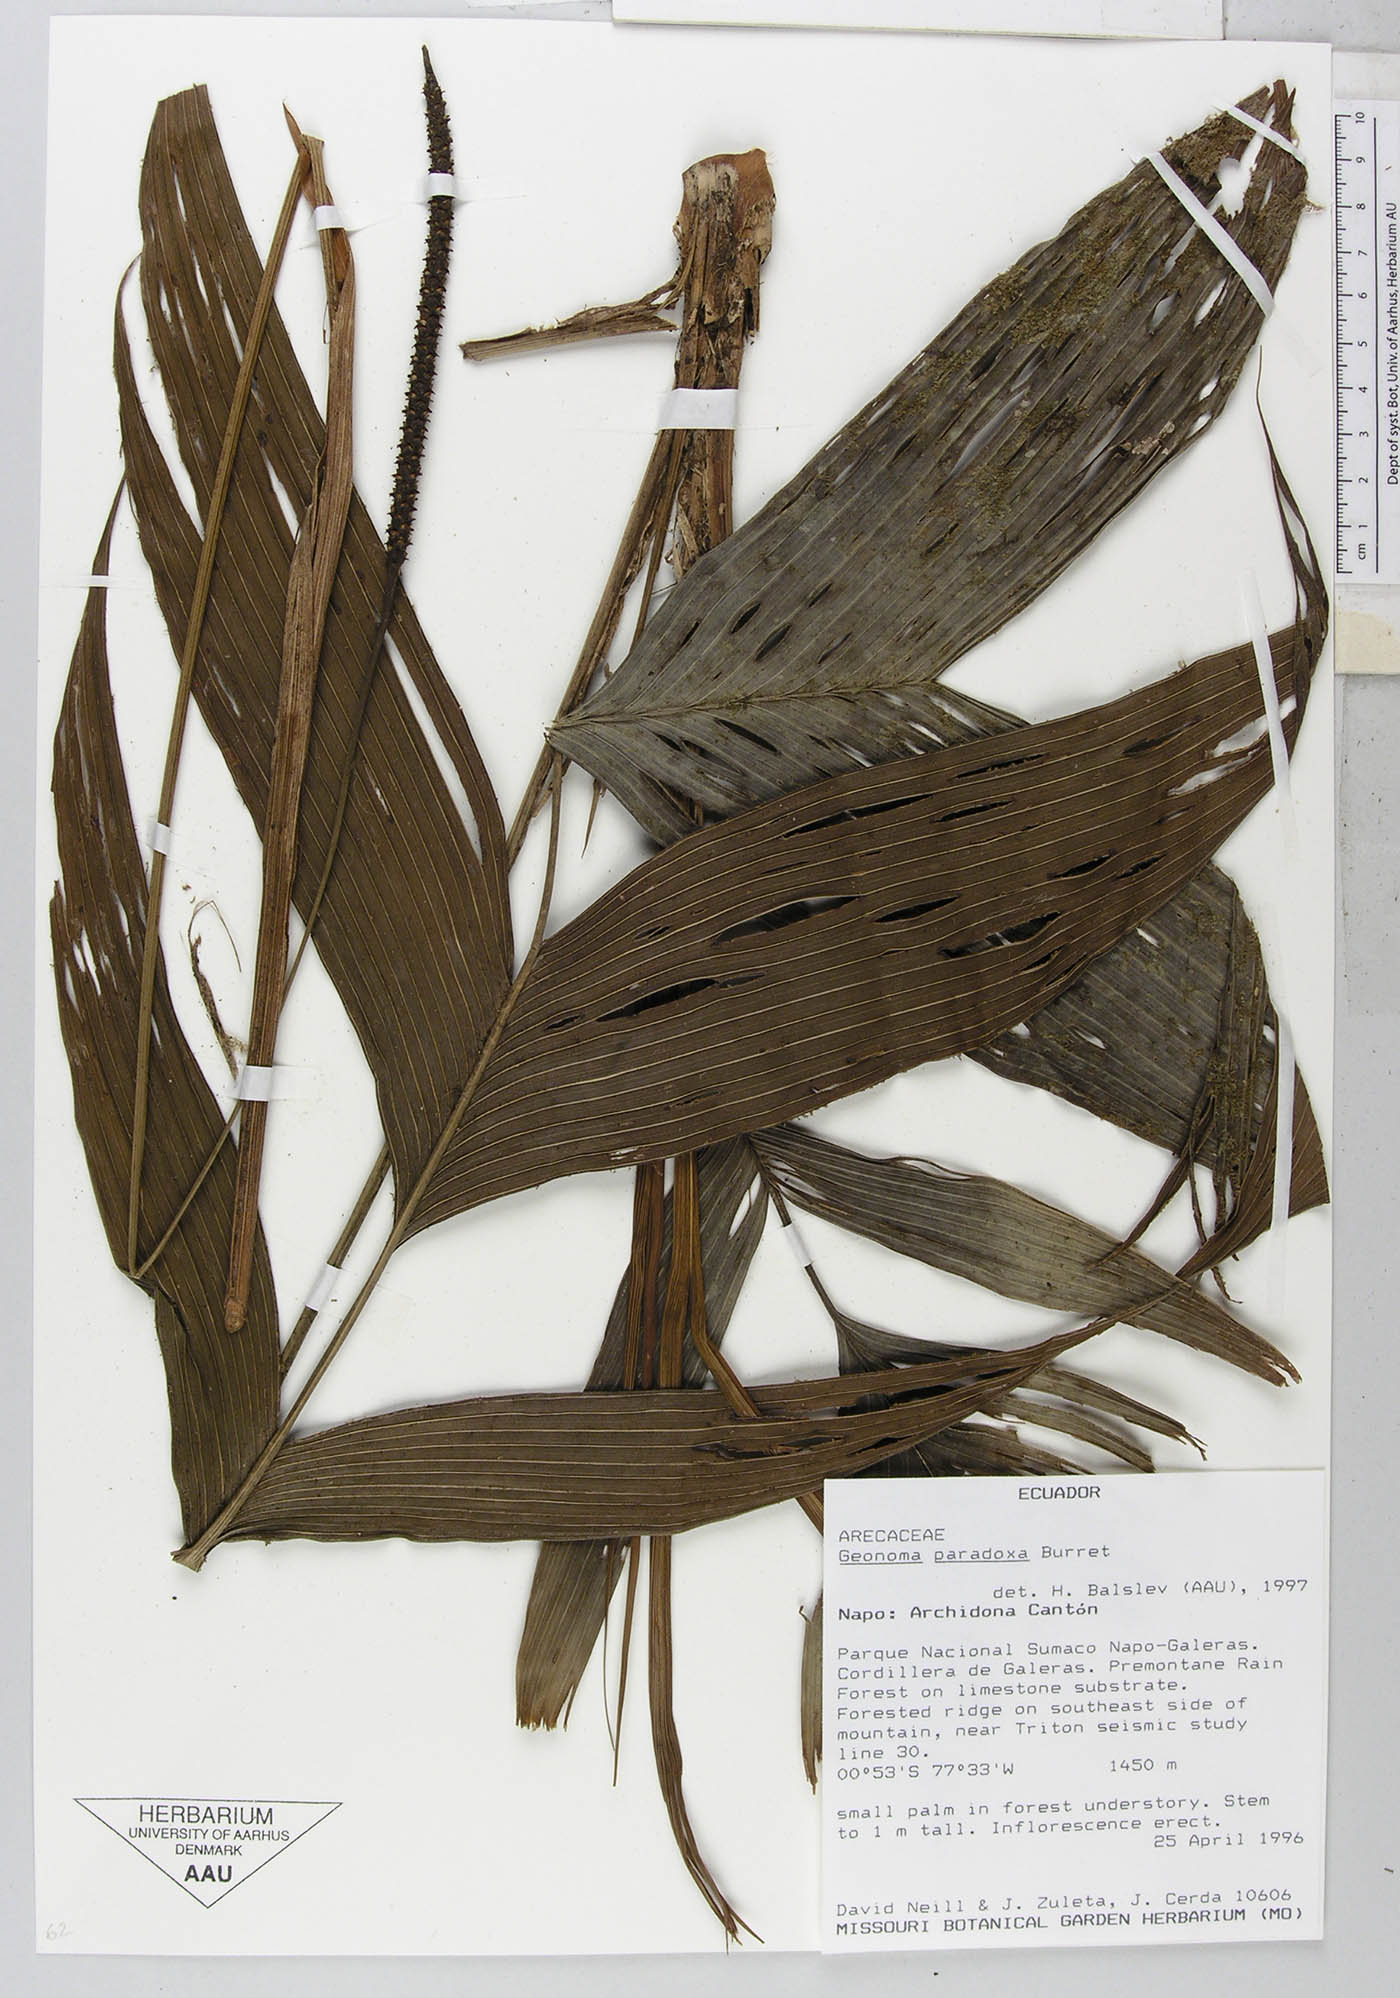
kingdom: Plantae
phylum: Tracheophyta
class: Liliopsida
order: Arecales
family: Arecaceae
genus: Geonoma
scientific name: Geonoma macrostachys
